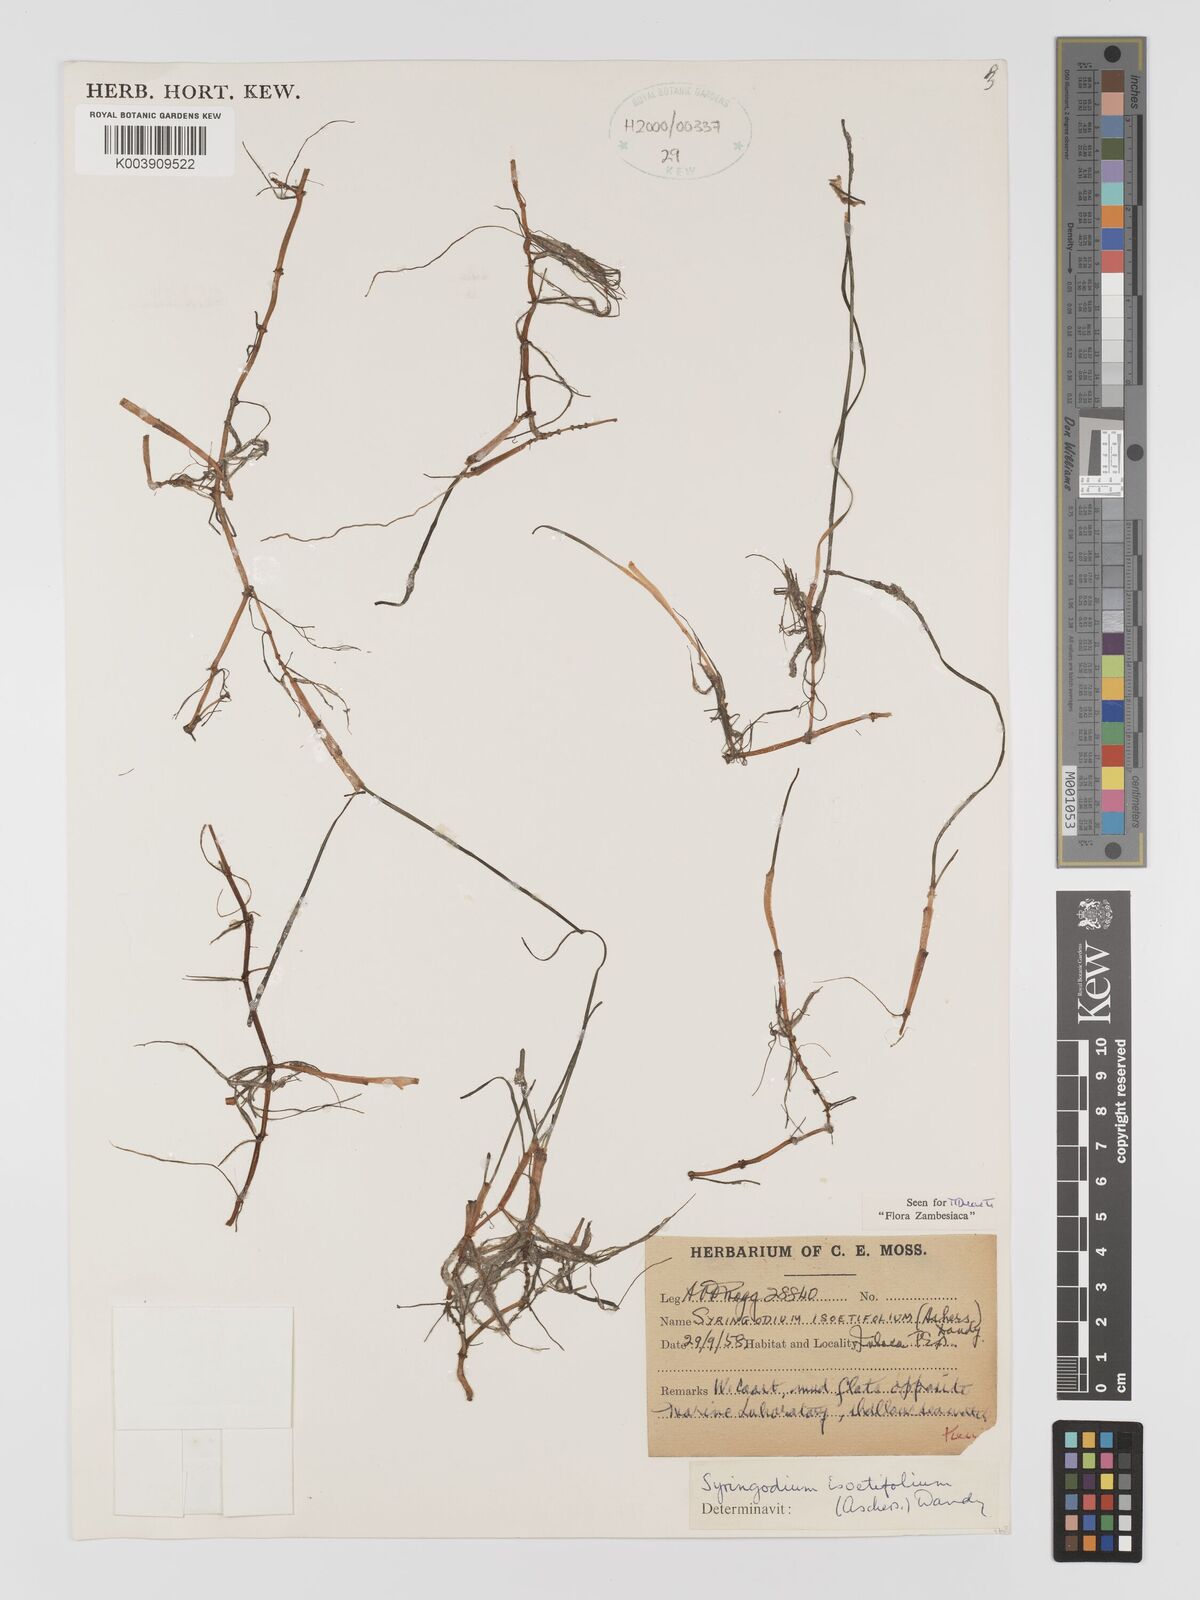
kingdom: Plantae
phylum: Tracheophyta
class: Liliopsida
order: Alismatales
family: Cymodoceaceae
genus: Syringodium
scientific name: Syringodium isoetifolium
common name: Species code: si
